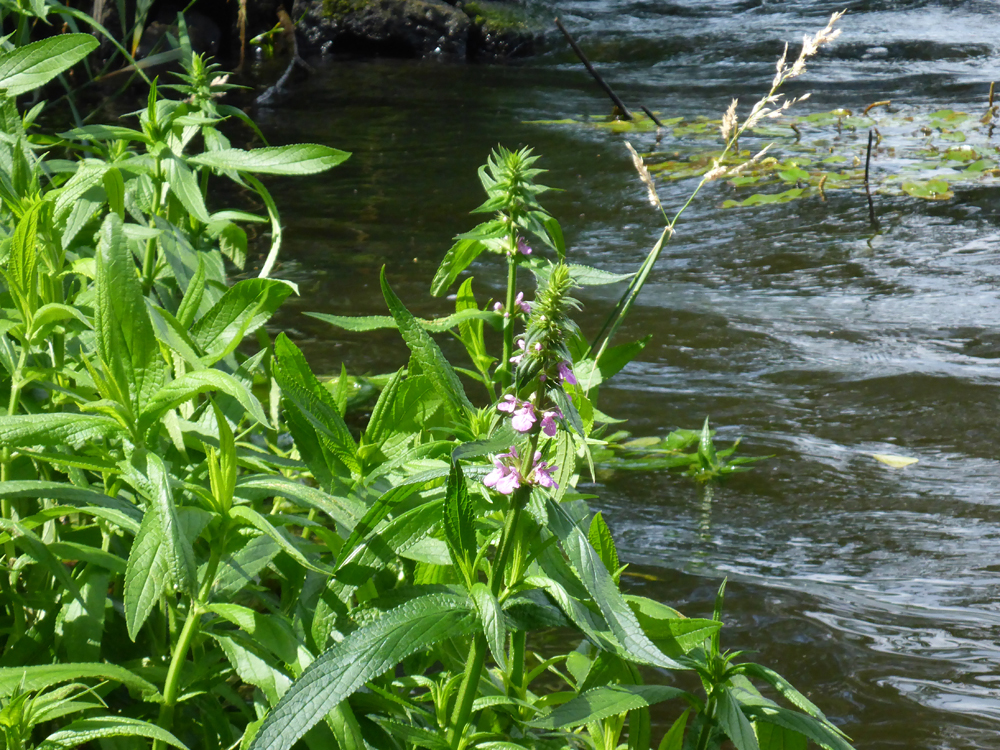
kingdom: Plantae
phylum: Tracheophyta
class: Magnoliopsida
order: Lamiales
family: Lamiaceae
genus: Stachys
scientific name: Stachys palustris
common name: Marsh woundwort
